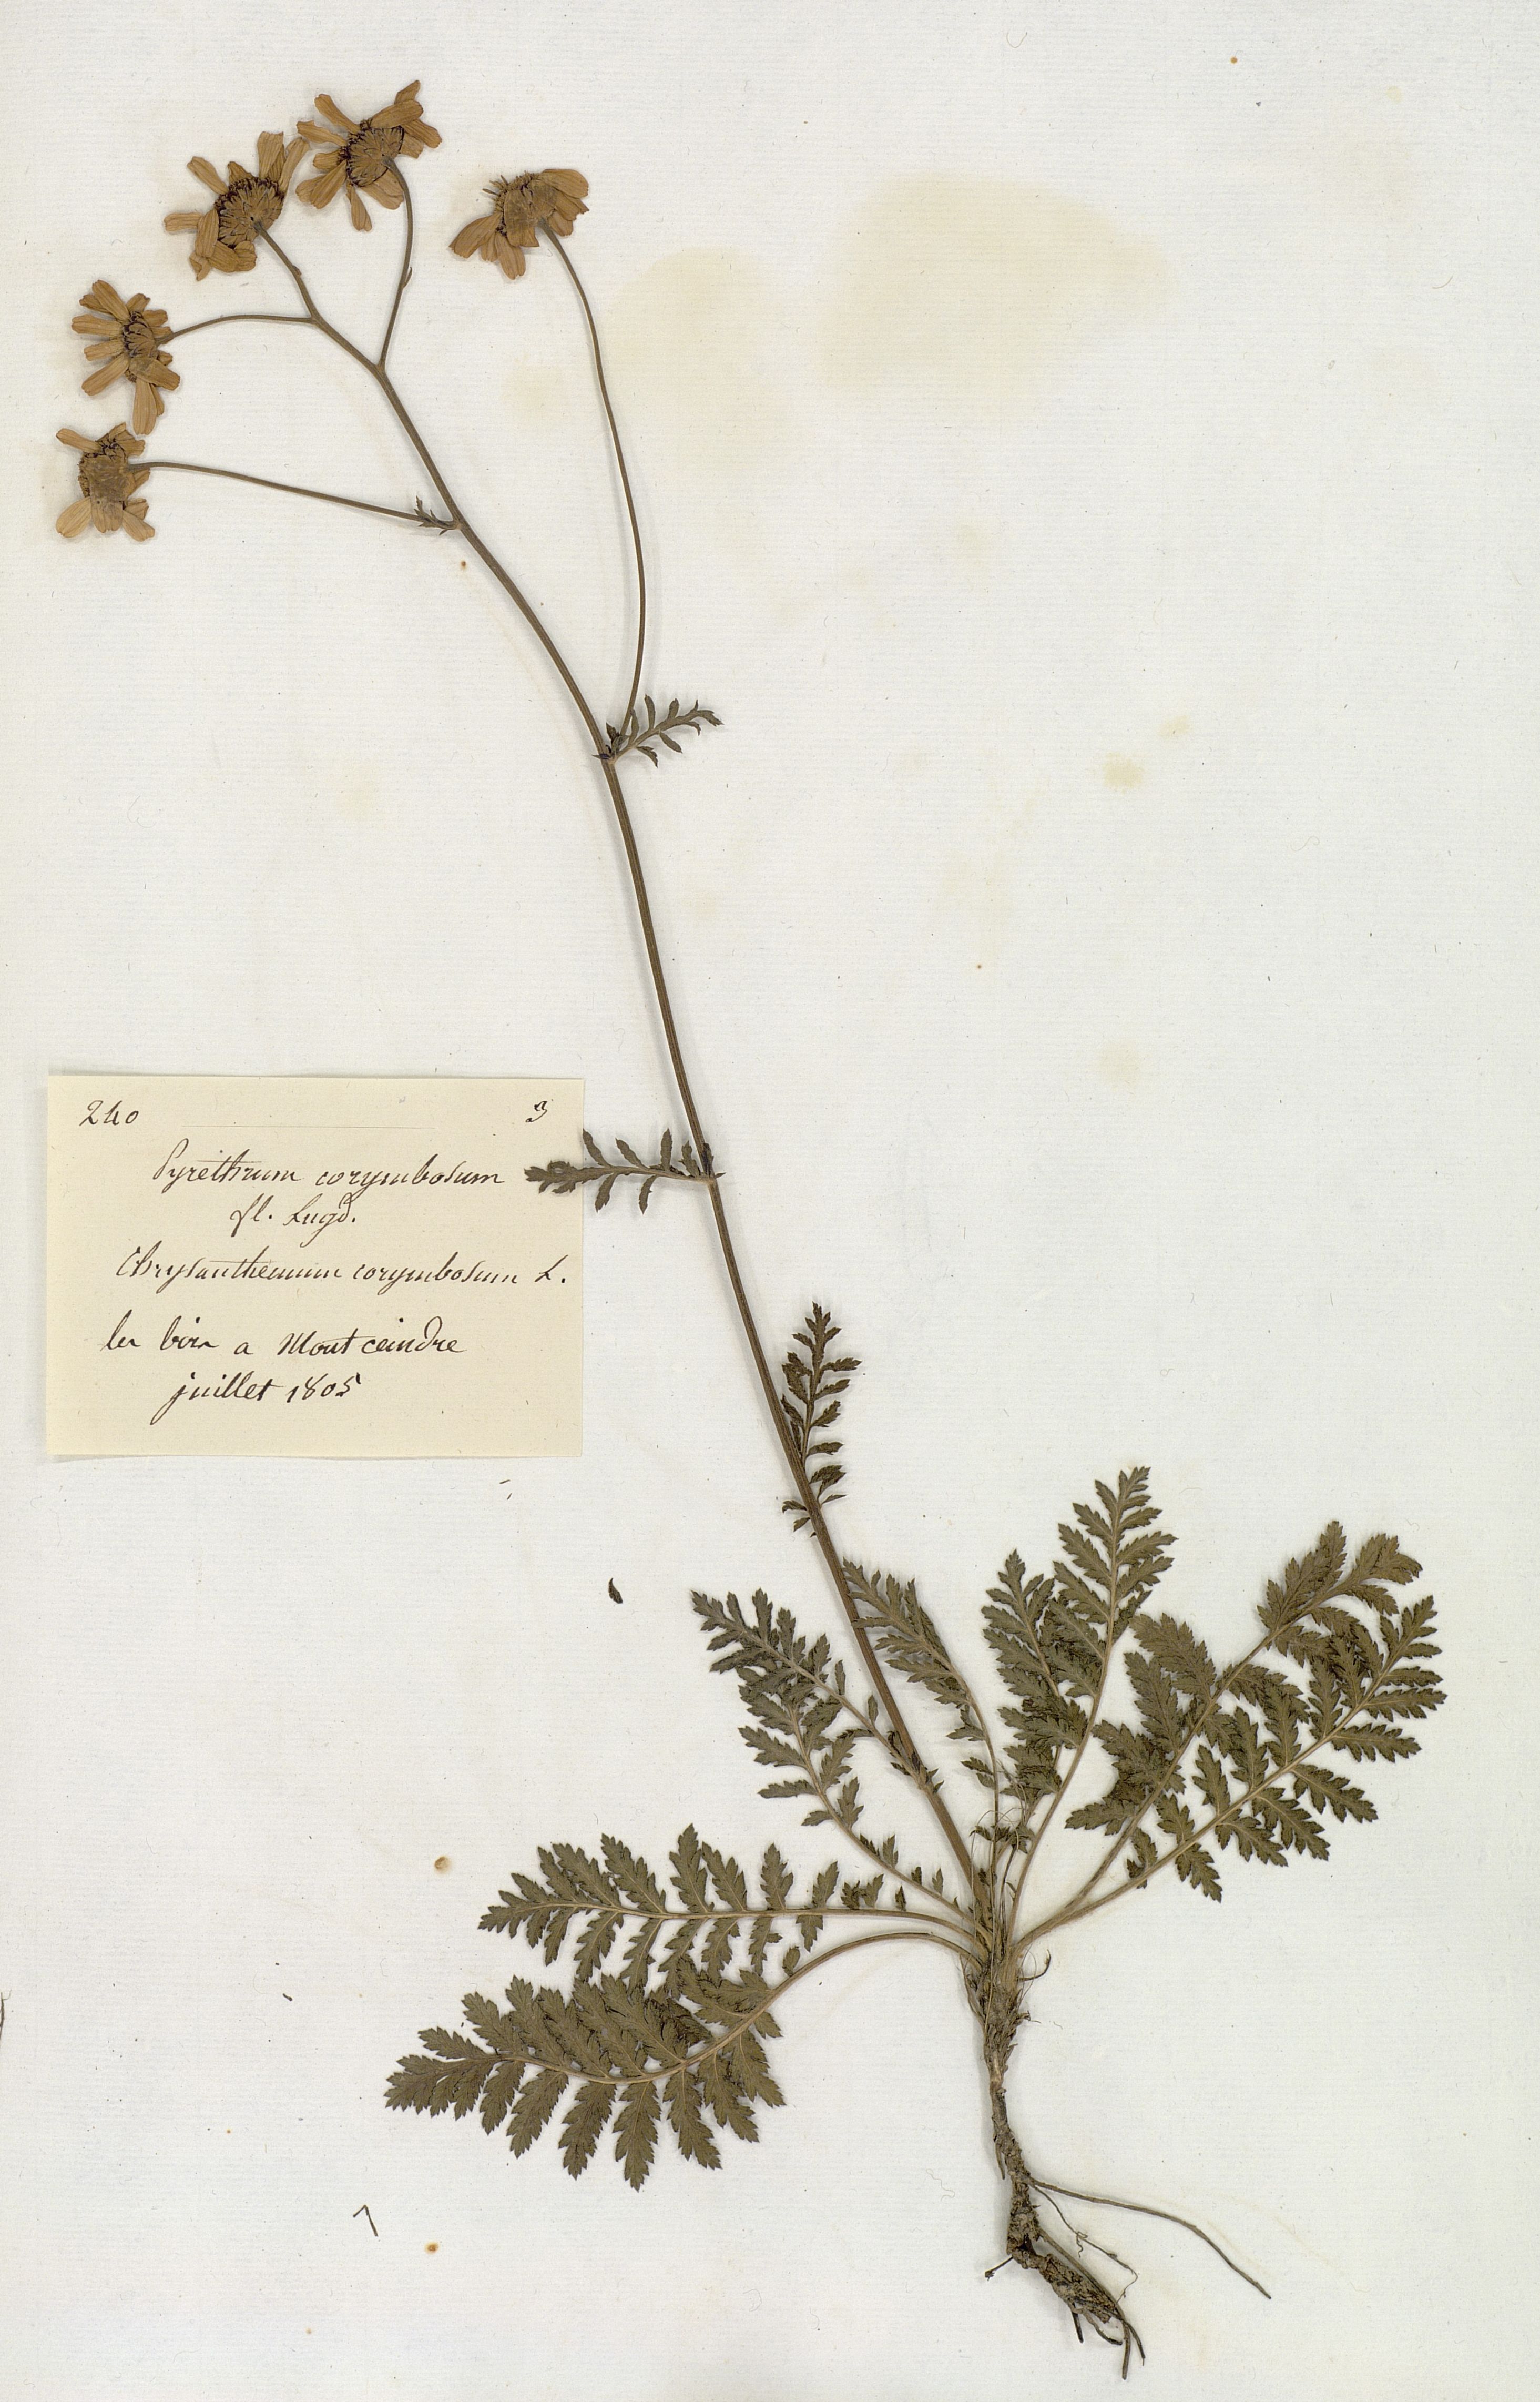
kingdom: Plantae
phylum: Tracheophyta
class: Magnoliopsida
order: Asterales
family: Asteraceae
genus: Acmella
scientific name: Acmella Pyrethrum corymbosum
